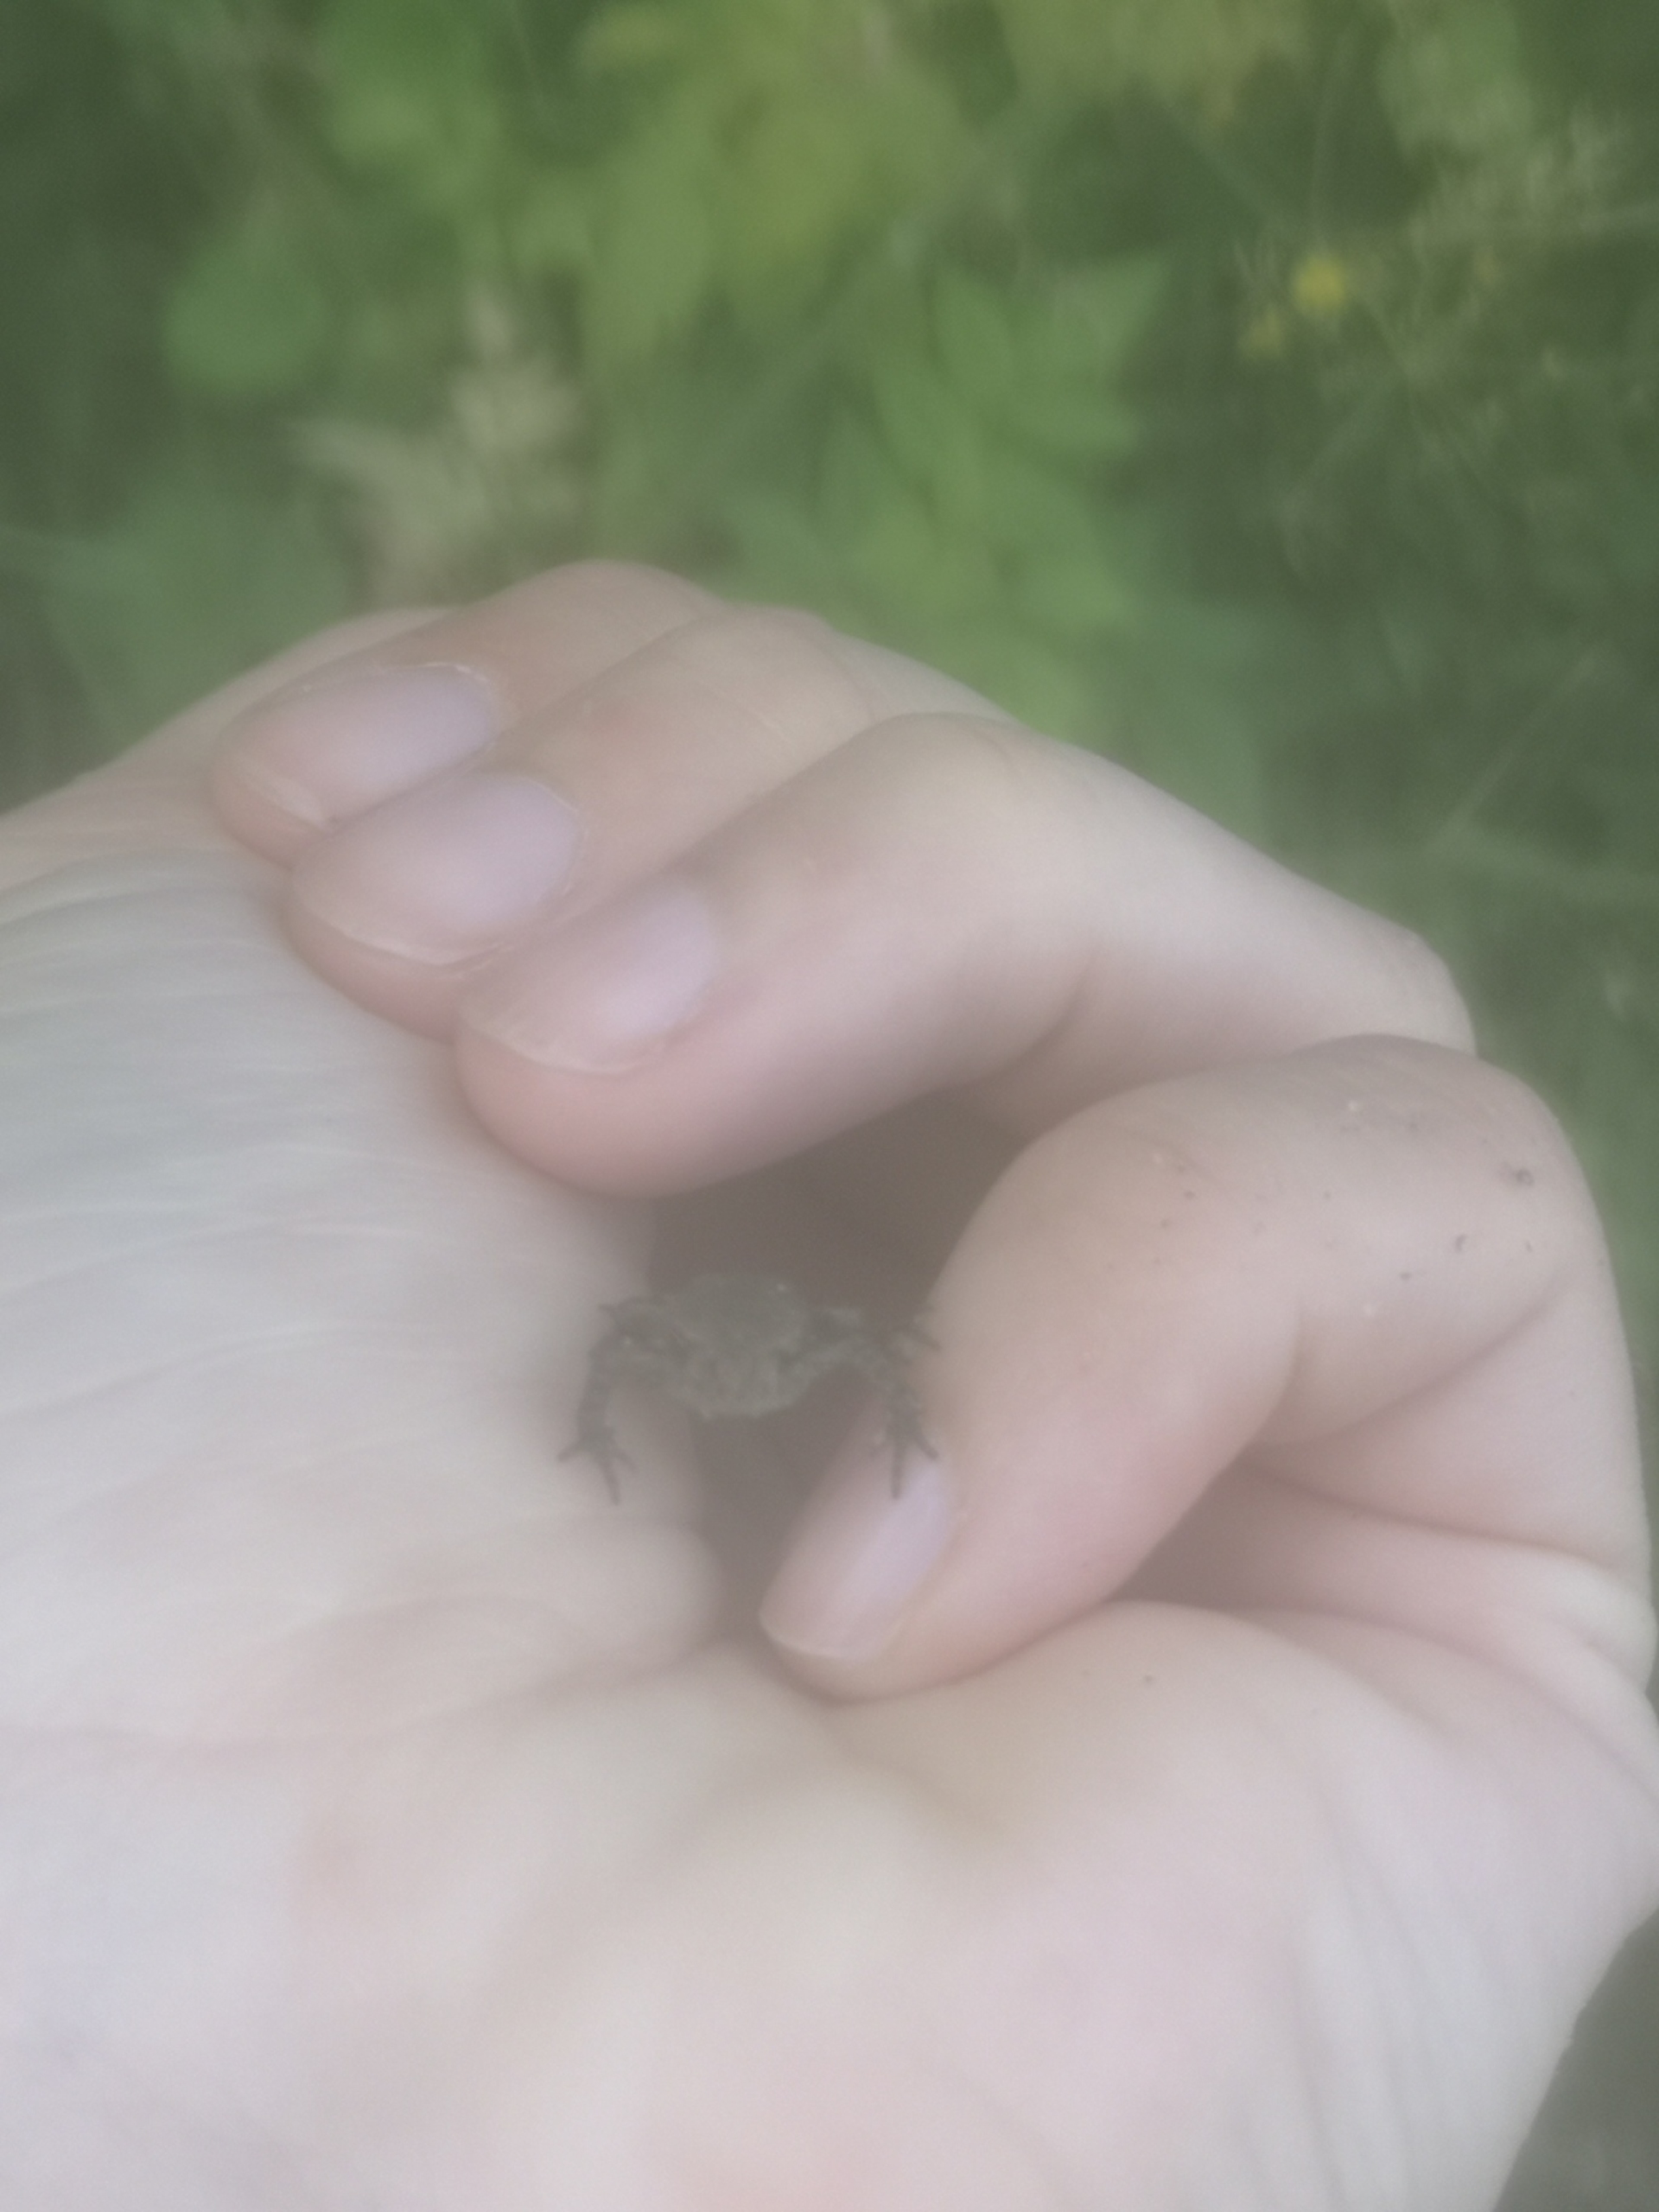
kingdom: Animalia
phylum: Chordata
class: Amphibia
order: Anura
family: Bufonidae
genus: Bufo
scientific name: Bufo bufo
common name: Skrubtudse
